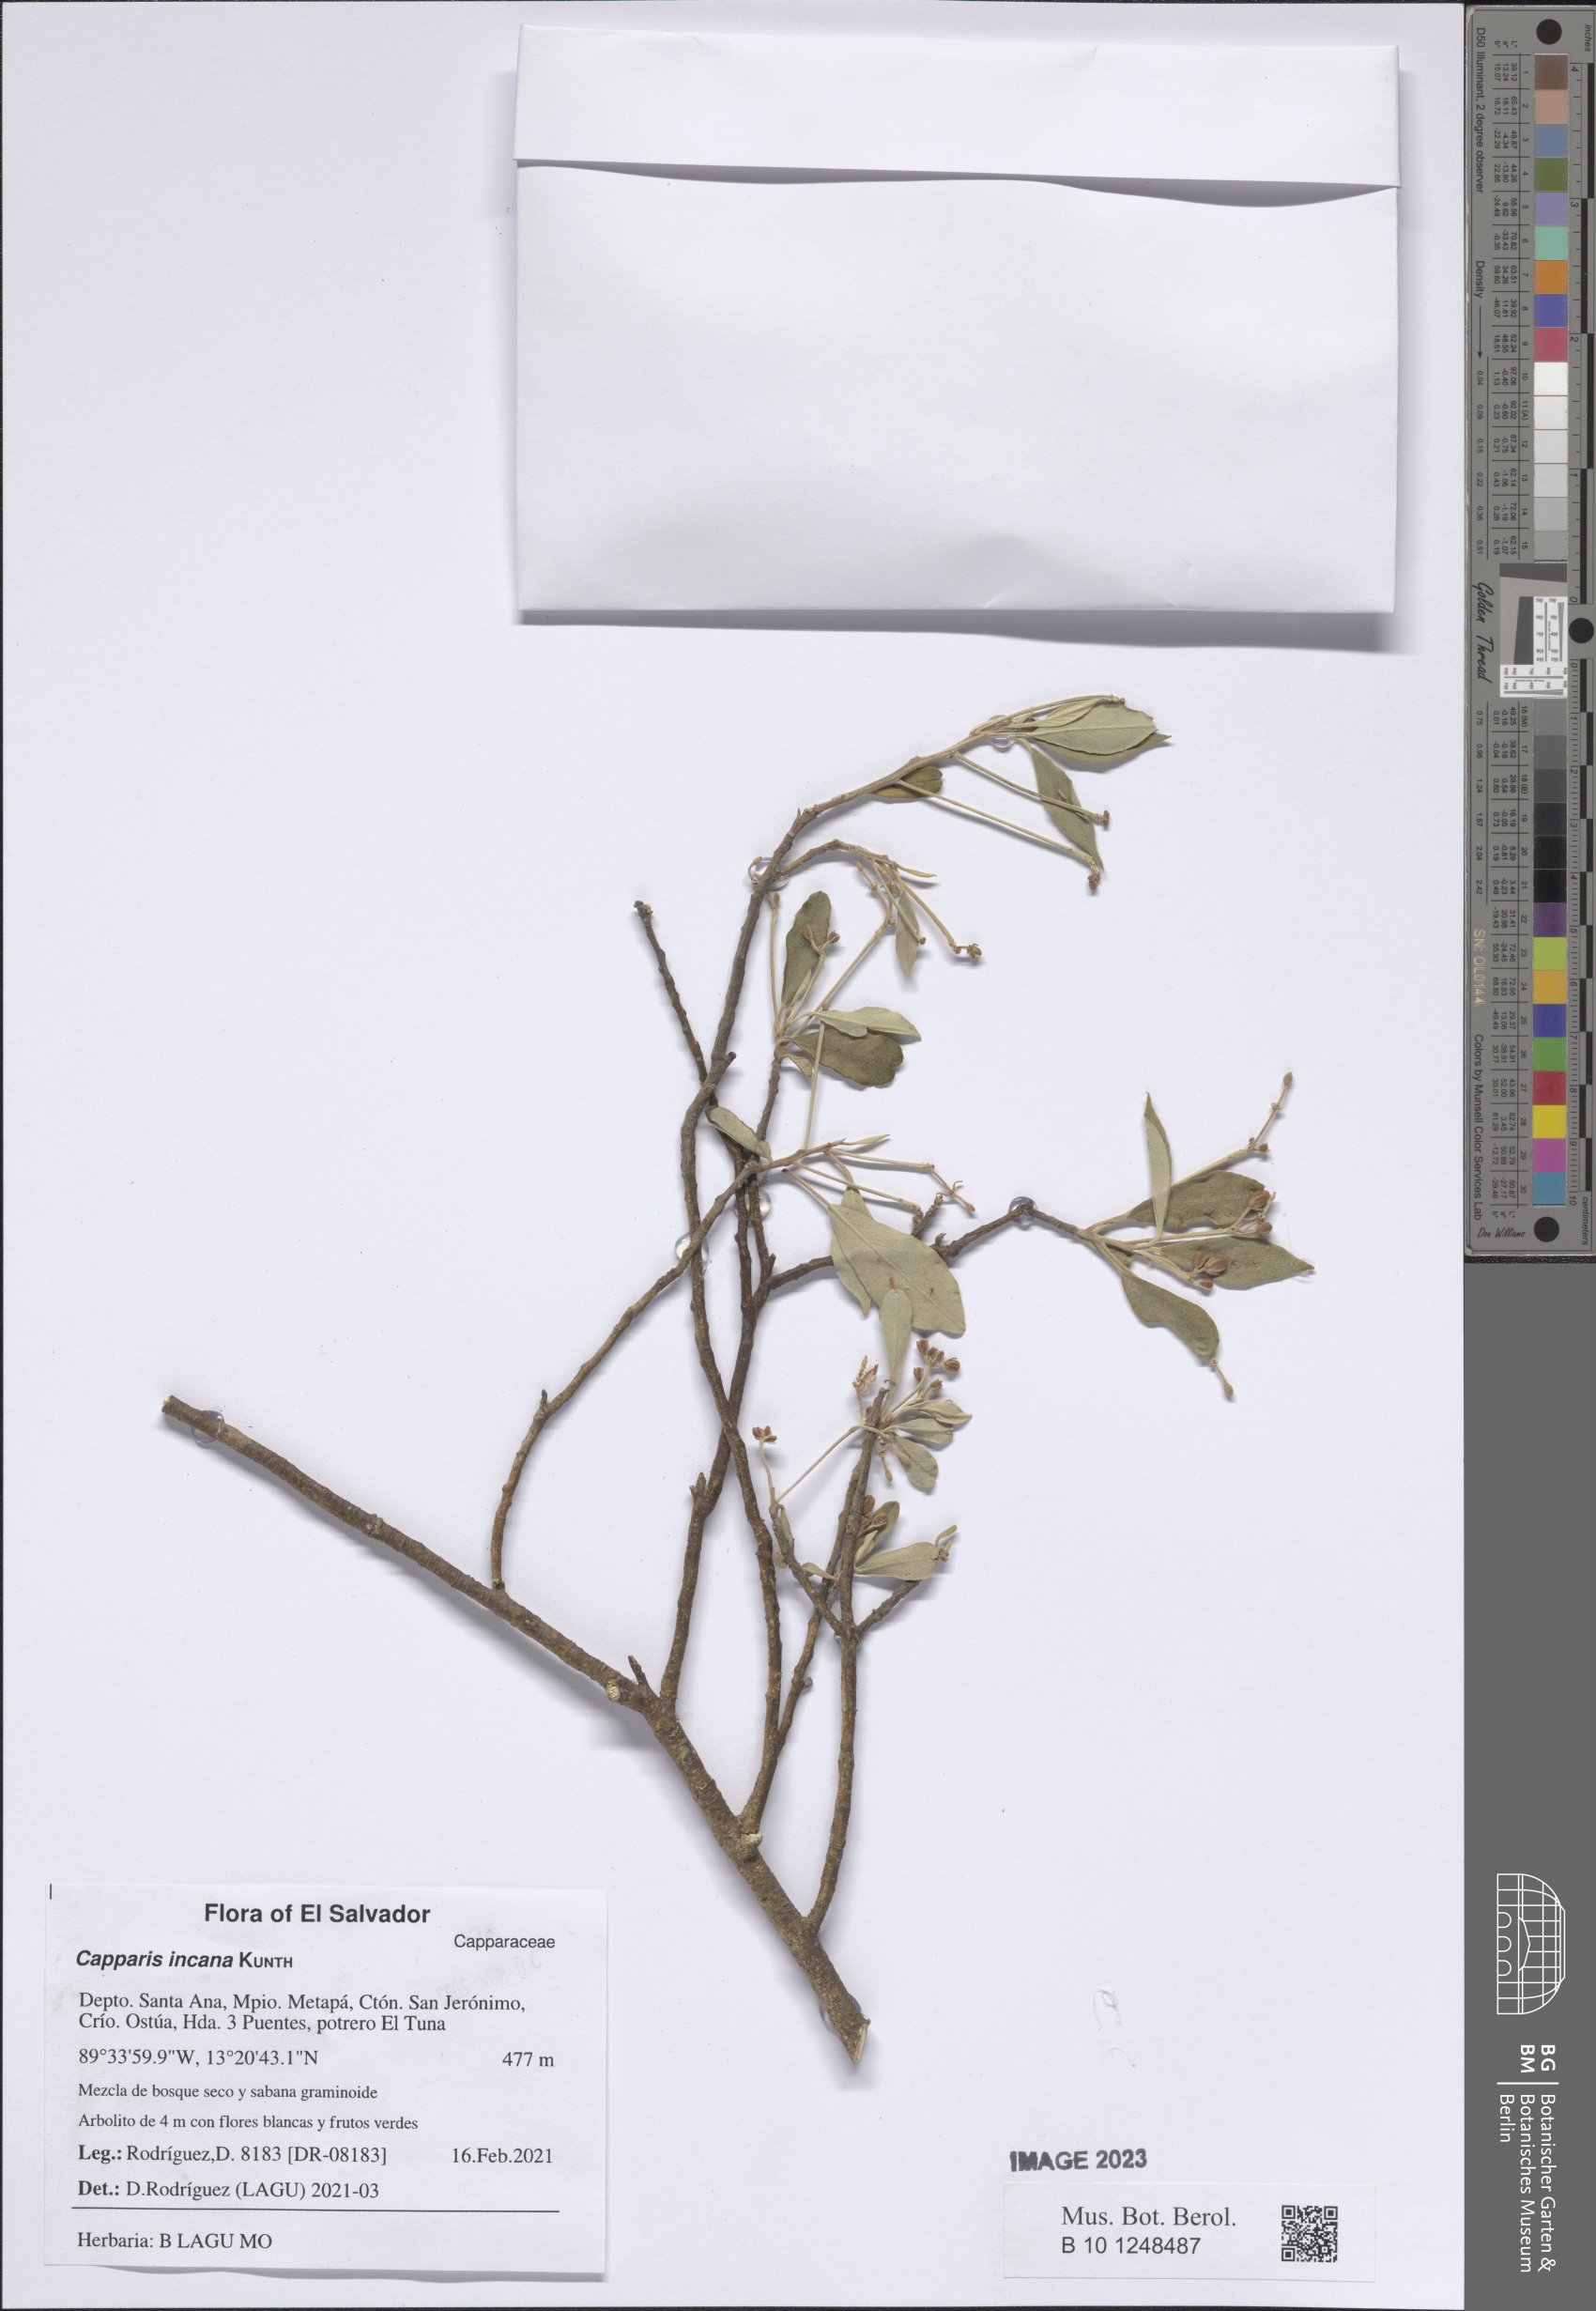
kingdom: Plantae
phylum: Tracheophyta
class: Magnoliopsida
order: Brassicales
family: Capparaceae
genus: Quadrella
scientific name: Quadrella incana
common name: Hoary caper
